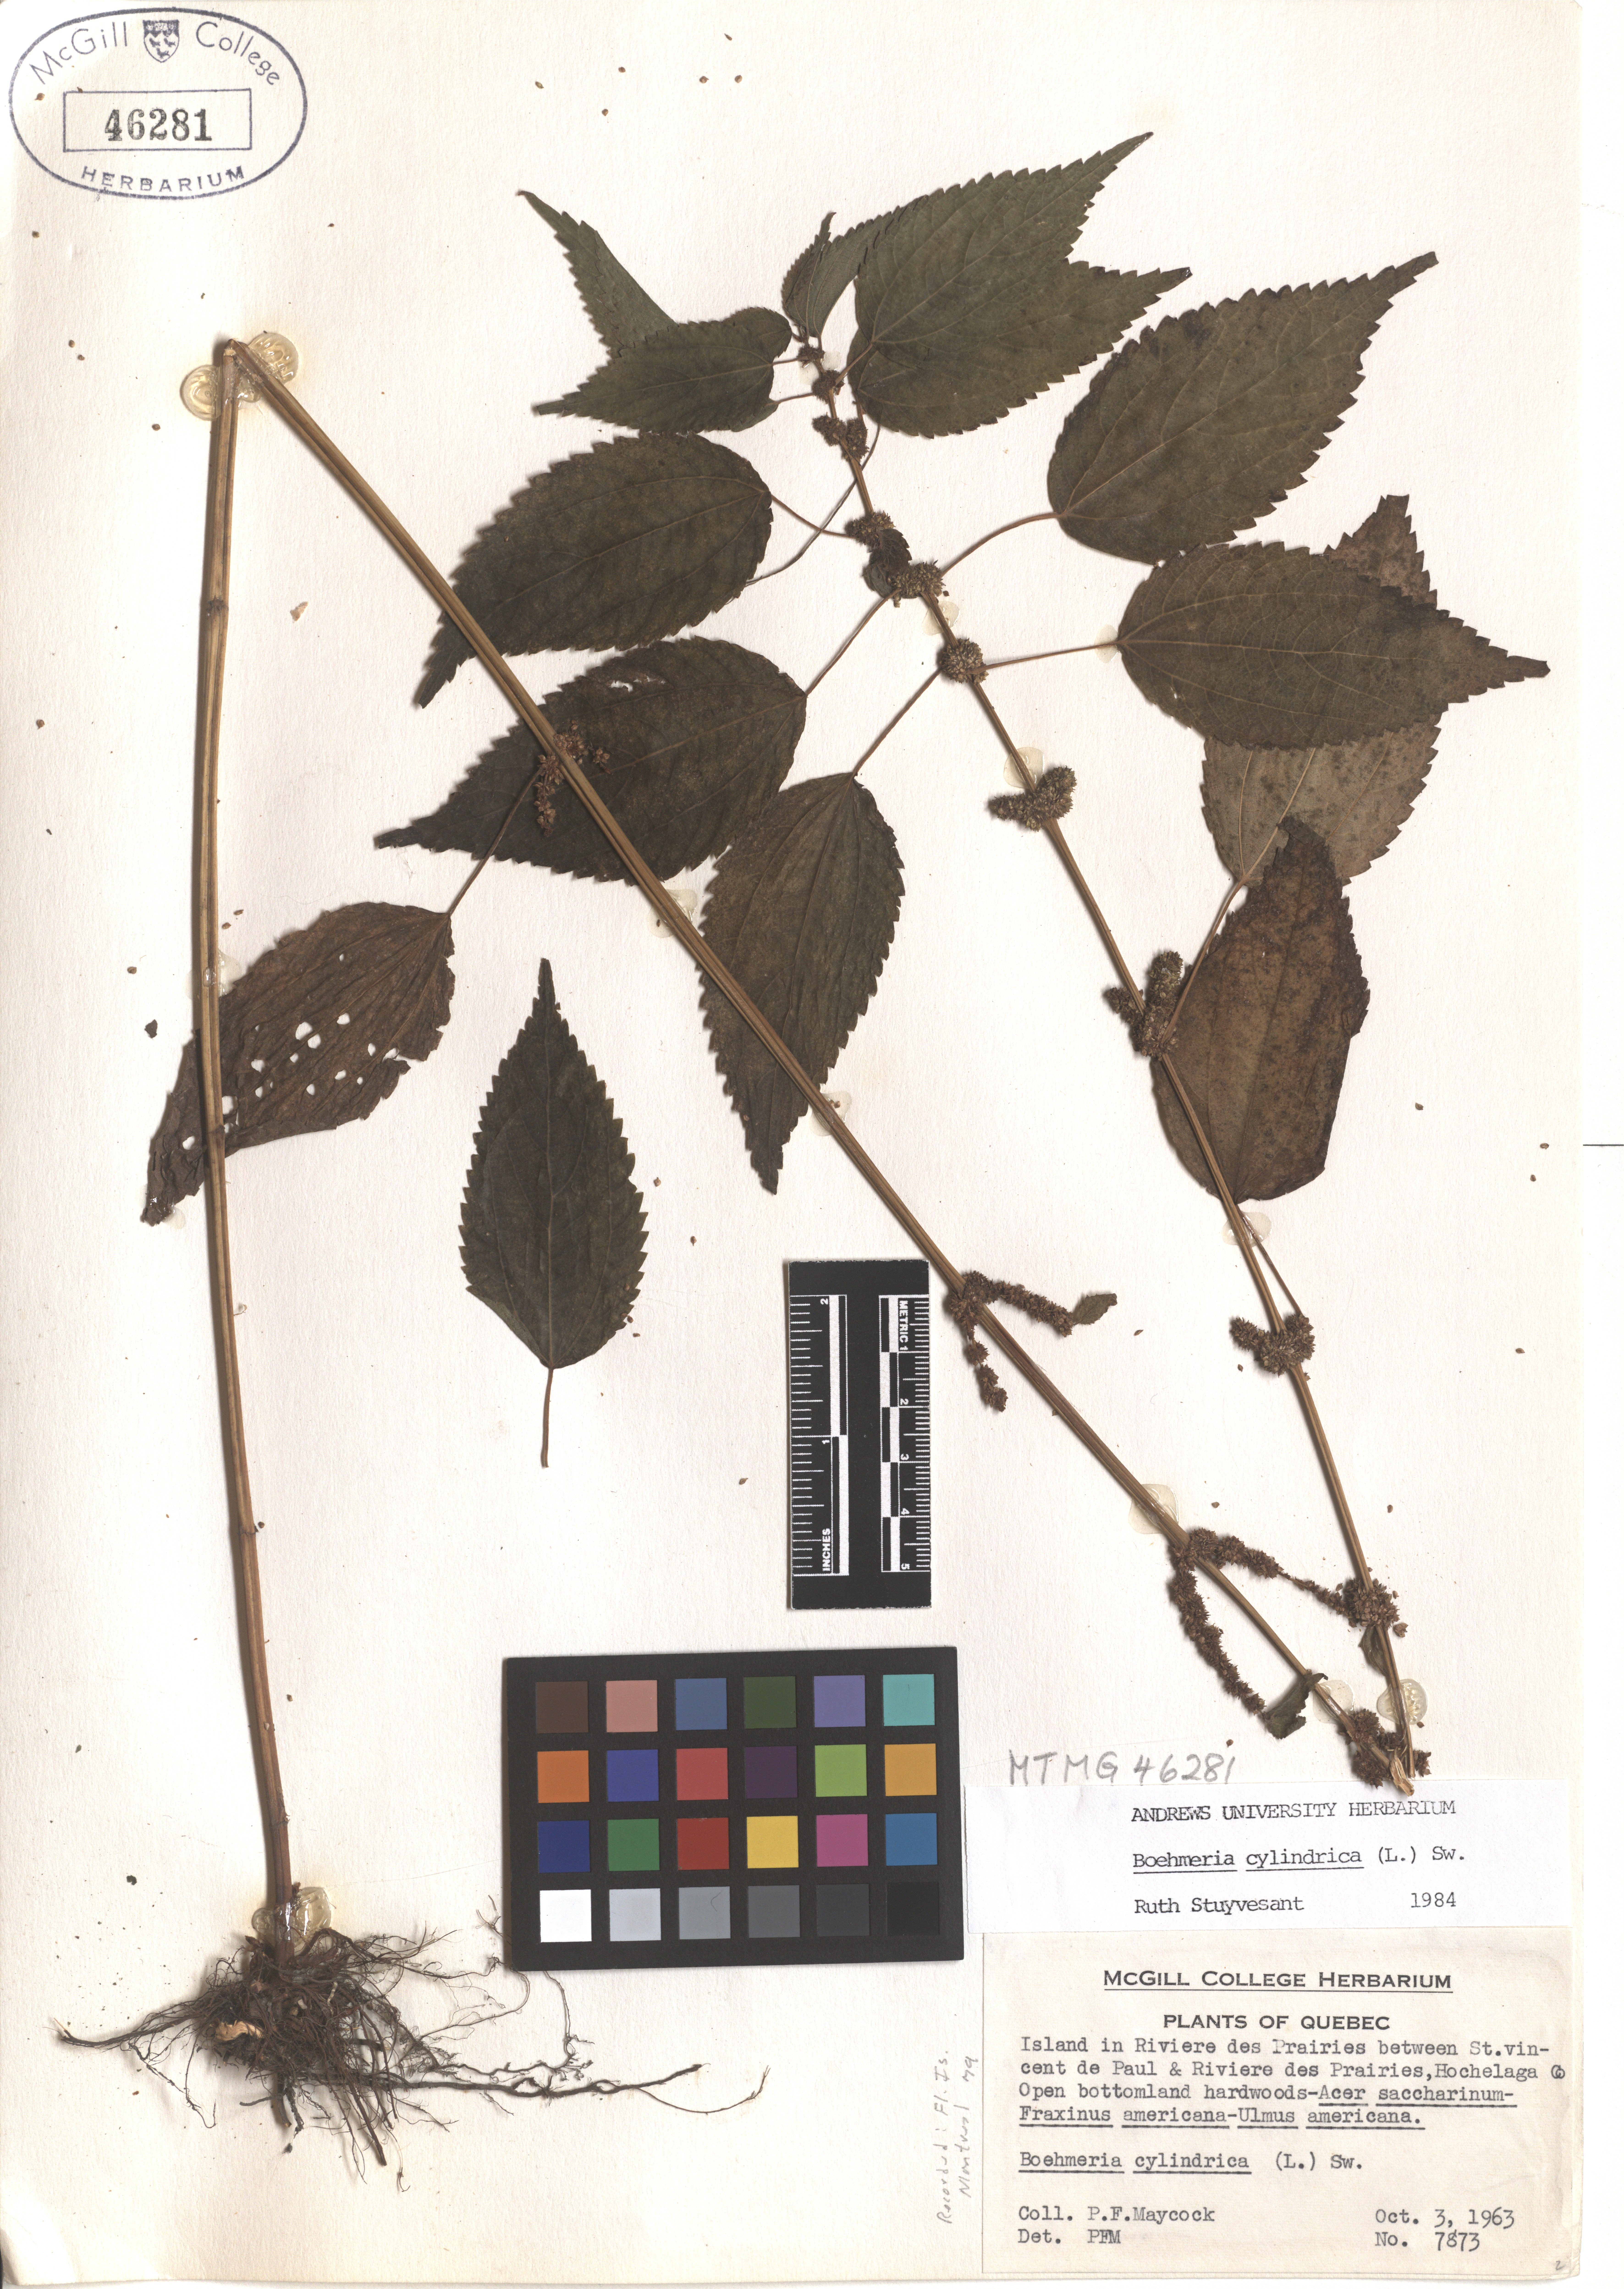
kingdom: Plantae
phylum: Tracheophyta
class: Magnoliopsida
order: Rosales
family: Urticaceae
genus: Boehmeria
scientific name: Boehmeria cylindrica
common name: Bog-hemp
